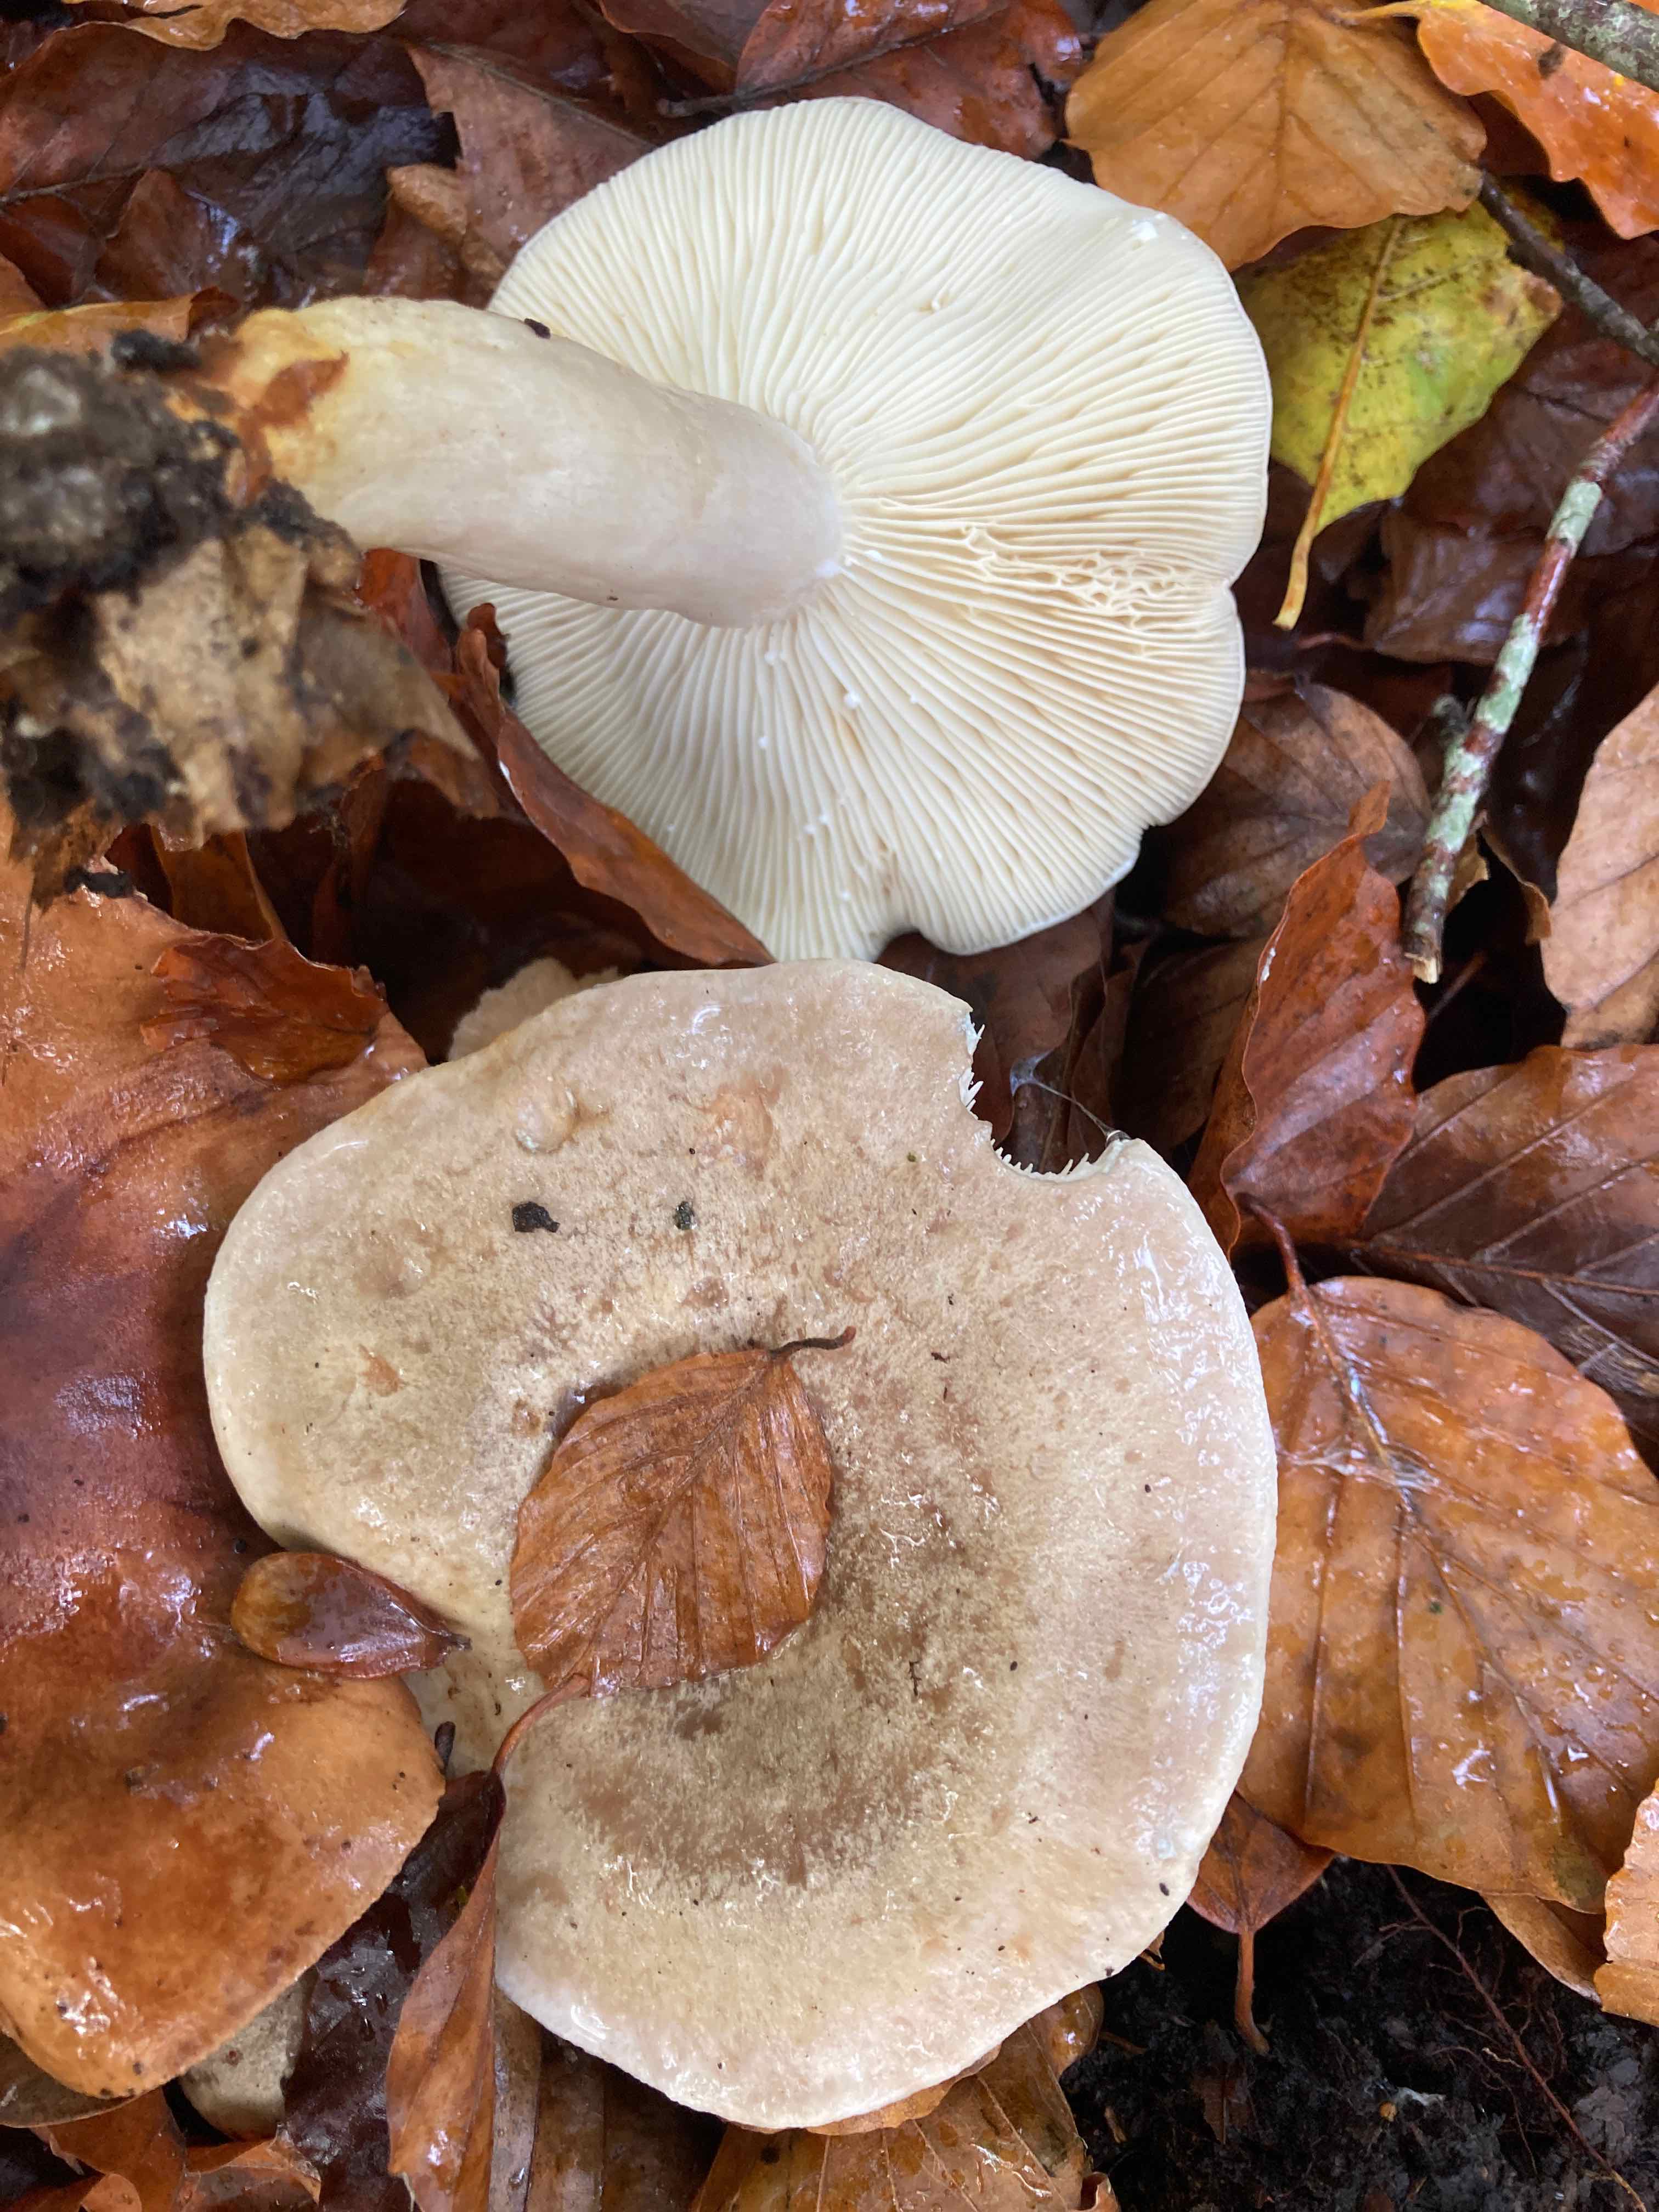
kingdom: Fungi
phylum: Basidiomycota
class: Agaricomycetes
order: Russulales
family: Russulaceae
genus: Lactarius
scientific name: Lactarius fluens
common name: lysrandet mælkehat
